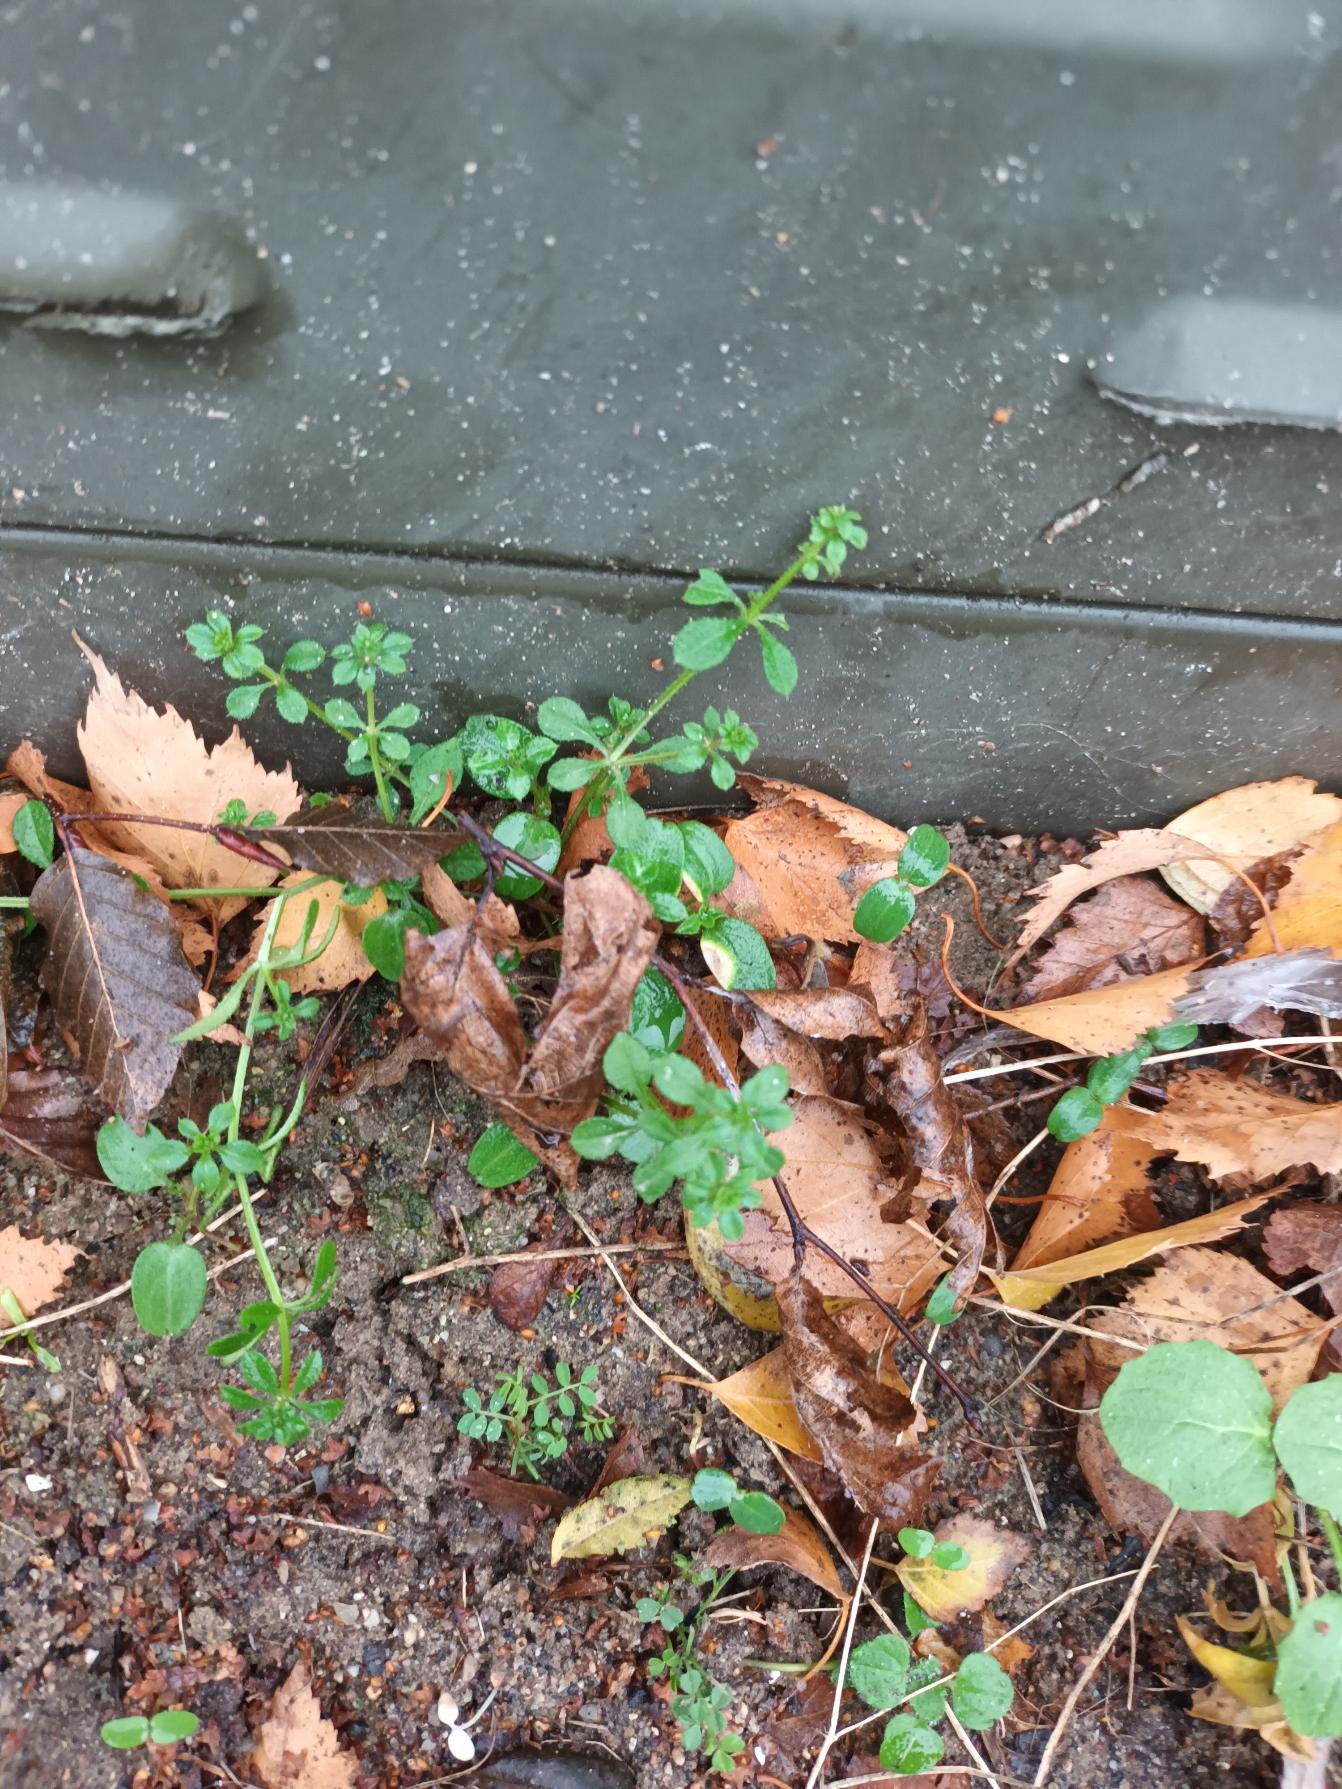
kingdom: Plantae
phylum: Tracheophyta
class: Magnoliopsida
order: Gentianales
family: Rubiaceae
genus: Galium
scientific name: Galium aparine
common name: Burre-snerre
